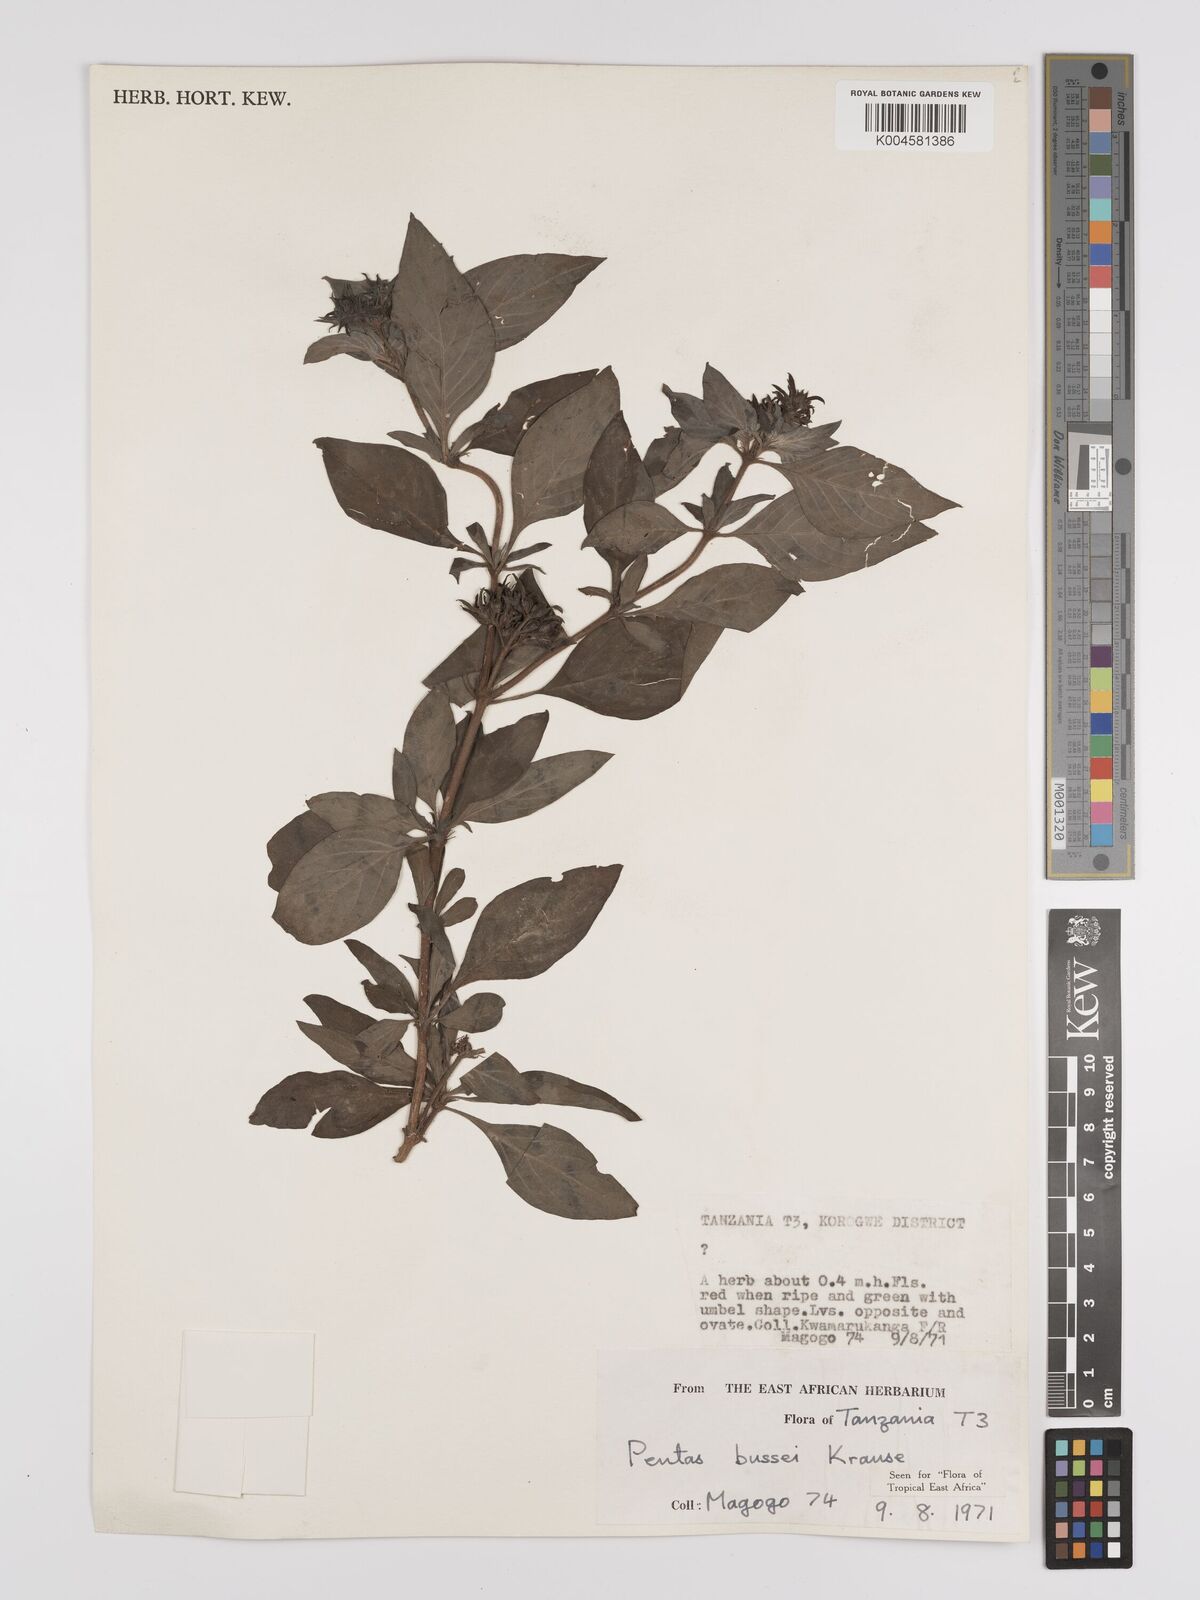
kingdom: Plantae
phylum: Tracheophyta
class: Magnoliopsida
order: Gentianales
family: Rubiaceae
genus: Rhodopentas
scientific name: Rhodopentas bussei
